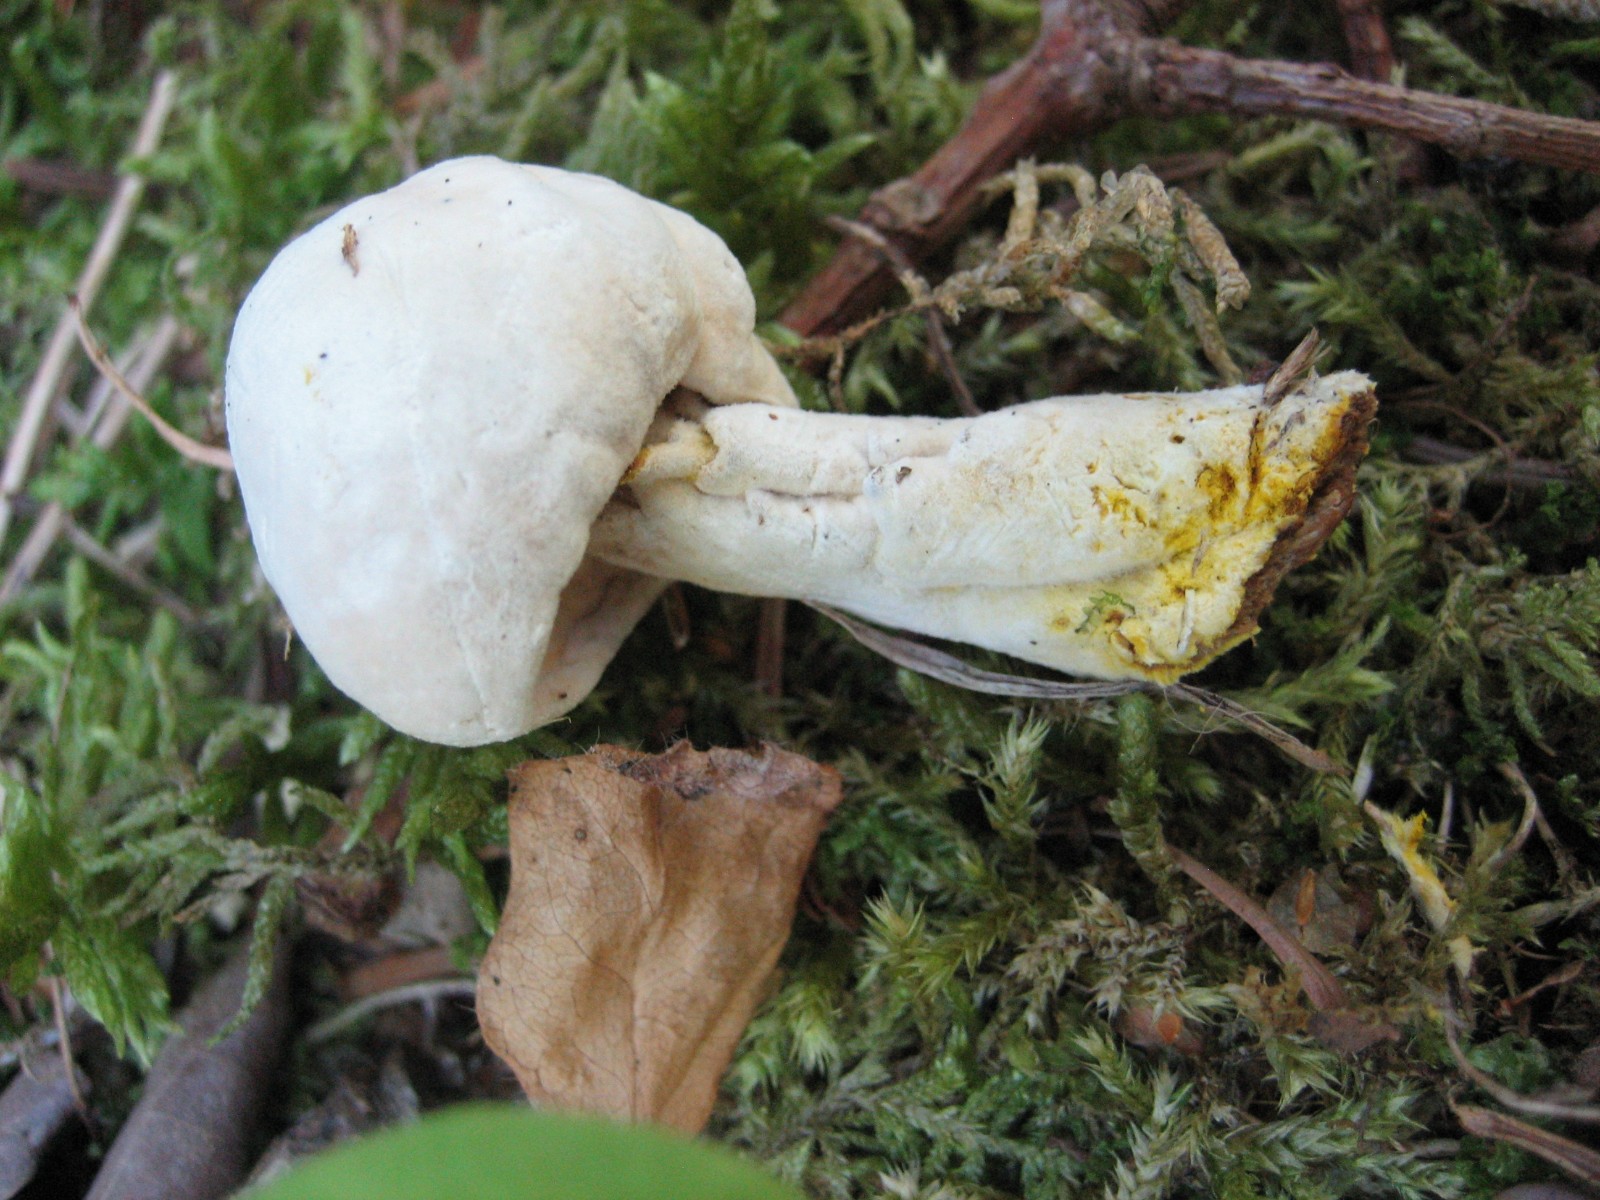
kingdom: Fungi
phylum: Ascomycota
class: Sordariomycetes
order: Hypocreales
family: Hypocreaceae
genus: Hypomyces
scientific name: Hypomyces
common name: snylteskorpe
